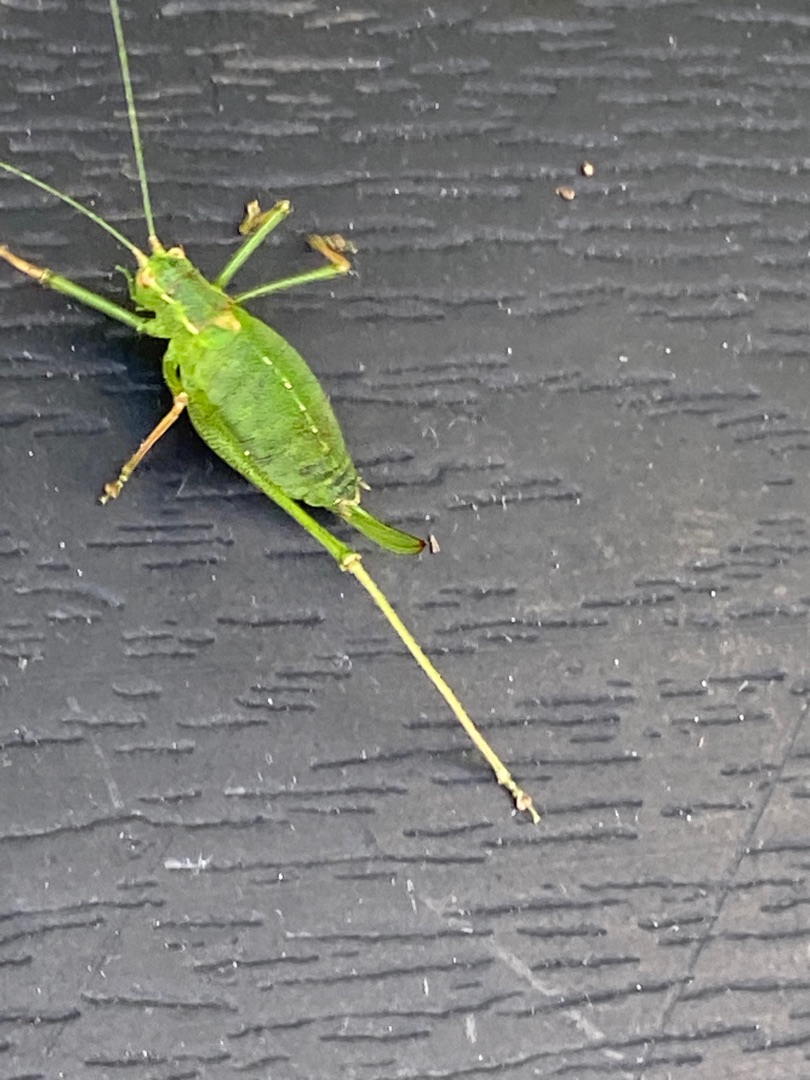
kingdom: Animalia
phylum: Arthropoda
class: Insecta
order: Orthoptera
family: Tettigoniidae
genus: Leptophyes
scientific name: Leptophyes punctatissima
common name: Krumknivgræshoppe
